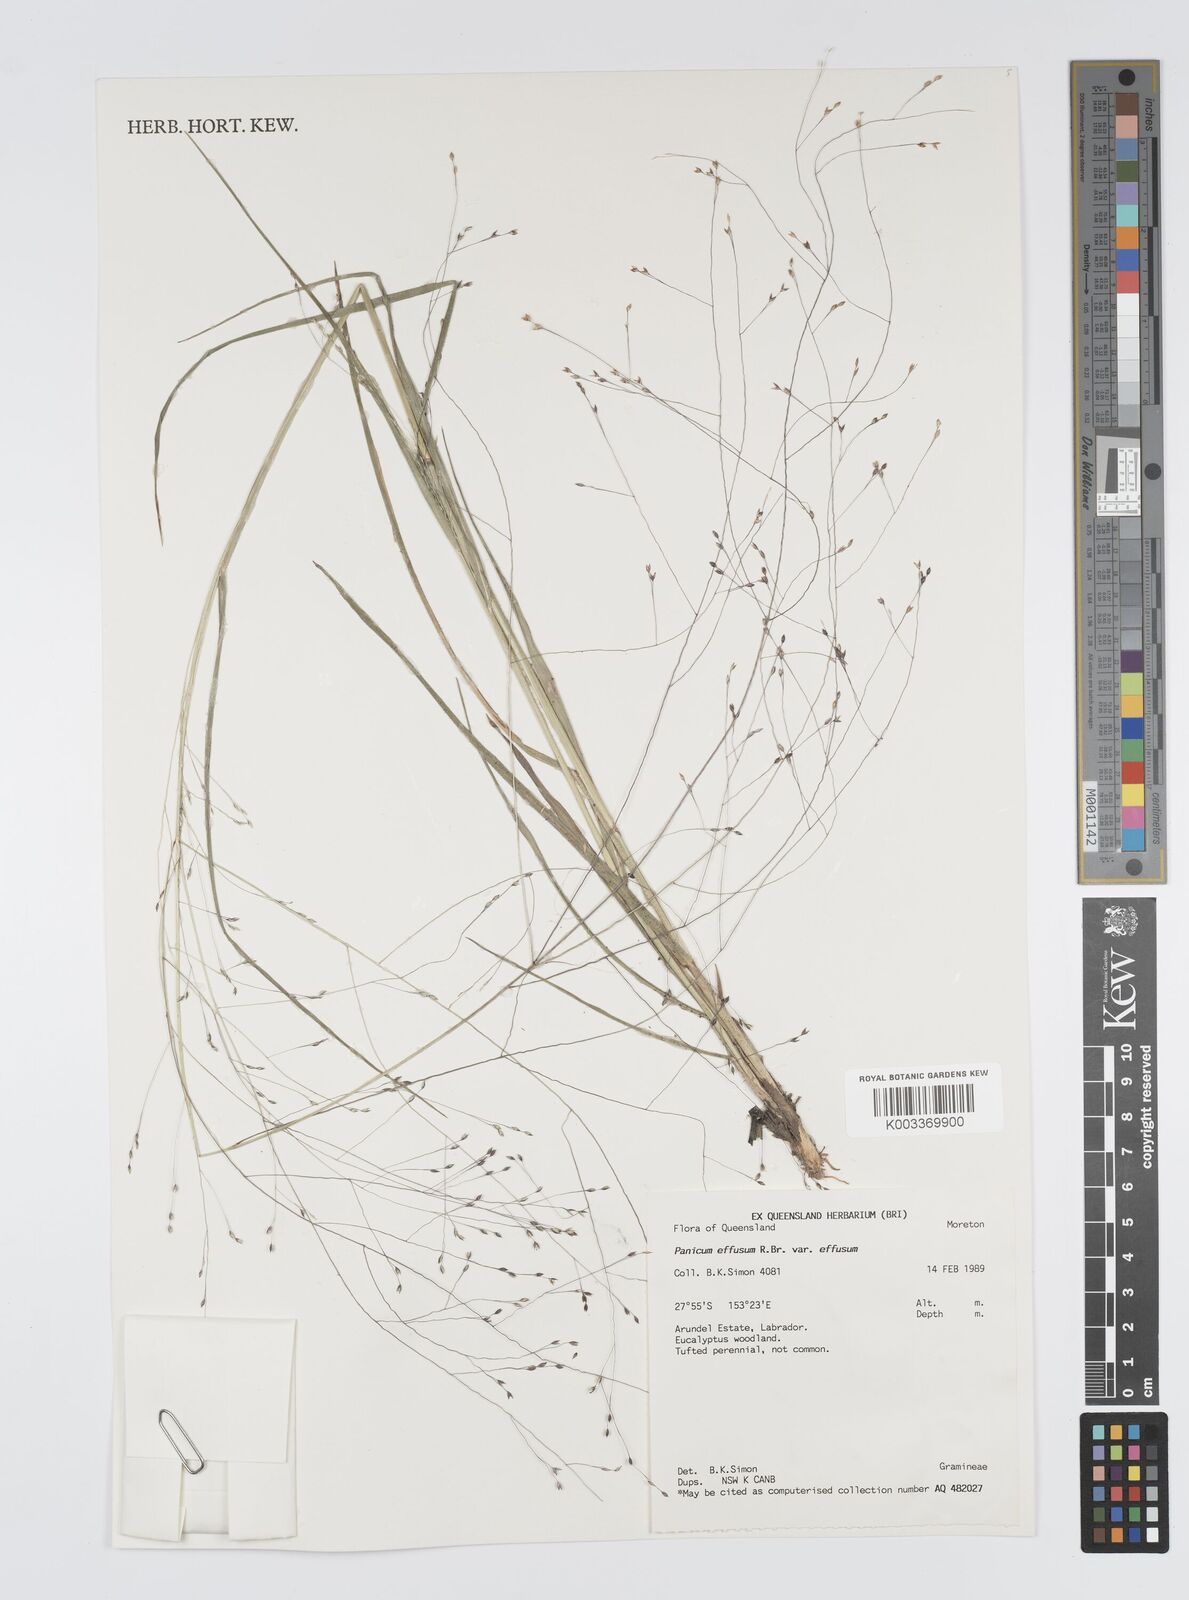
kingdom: Plantae
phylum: Tracheophyta
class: Liliopsida
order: Poales
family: Poaceae
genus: Panicum
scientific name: Panicum effusum
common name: Hairy panic grass
